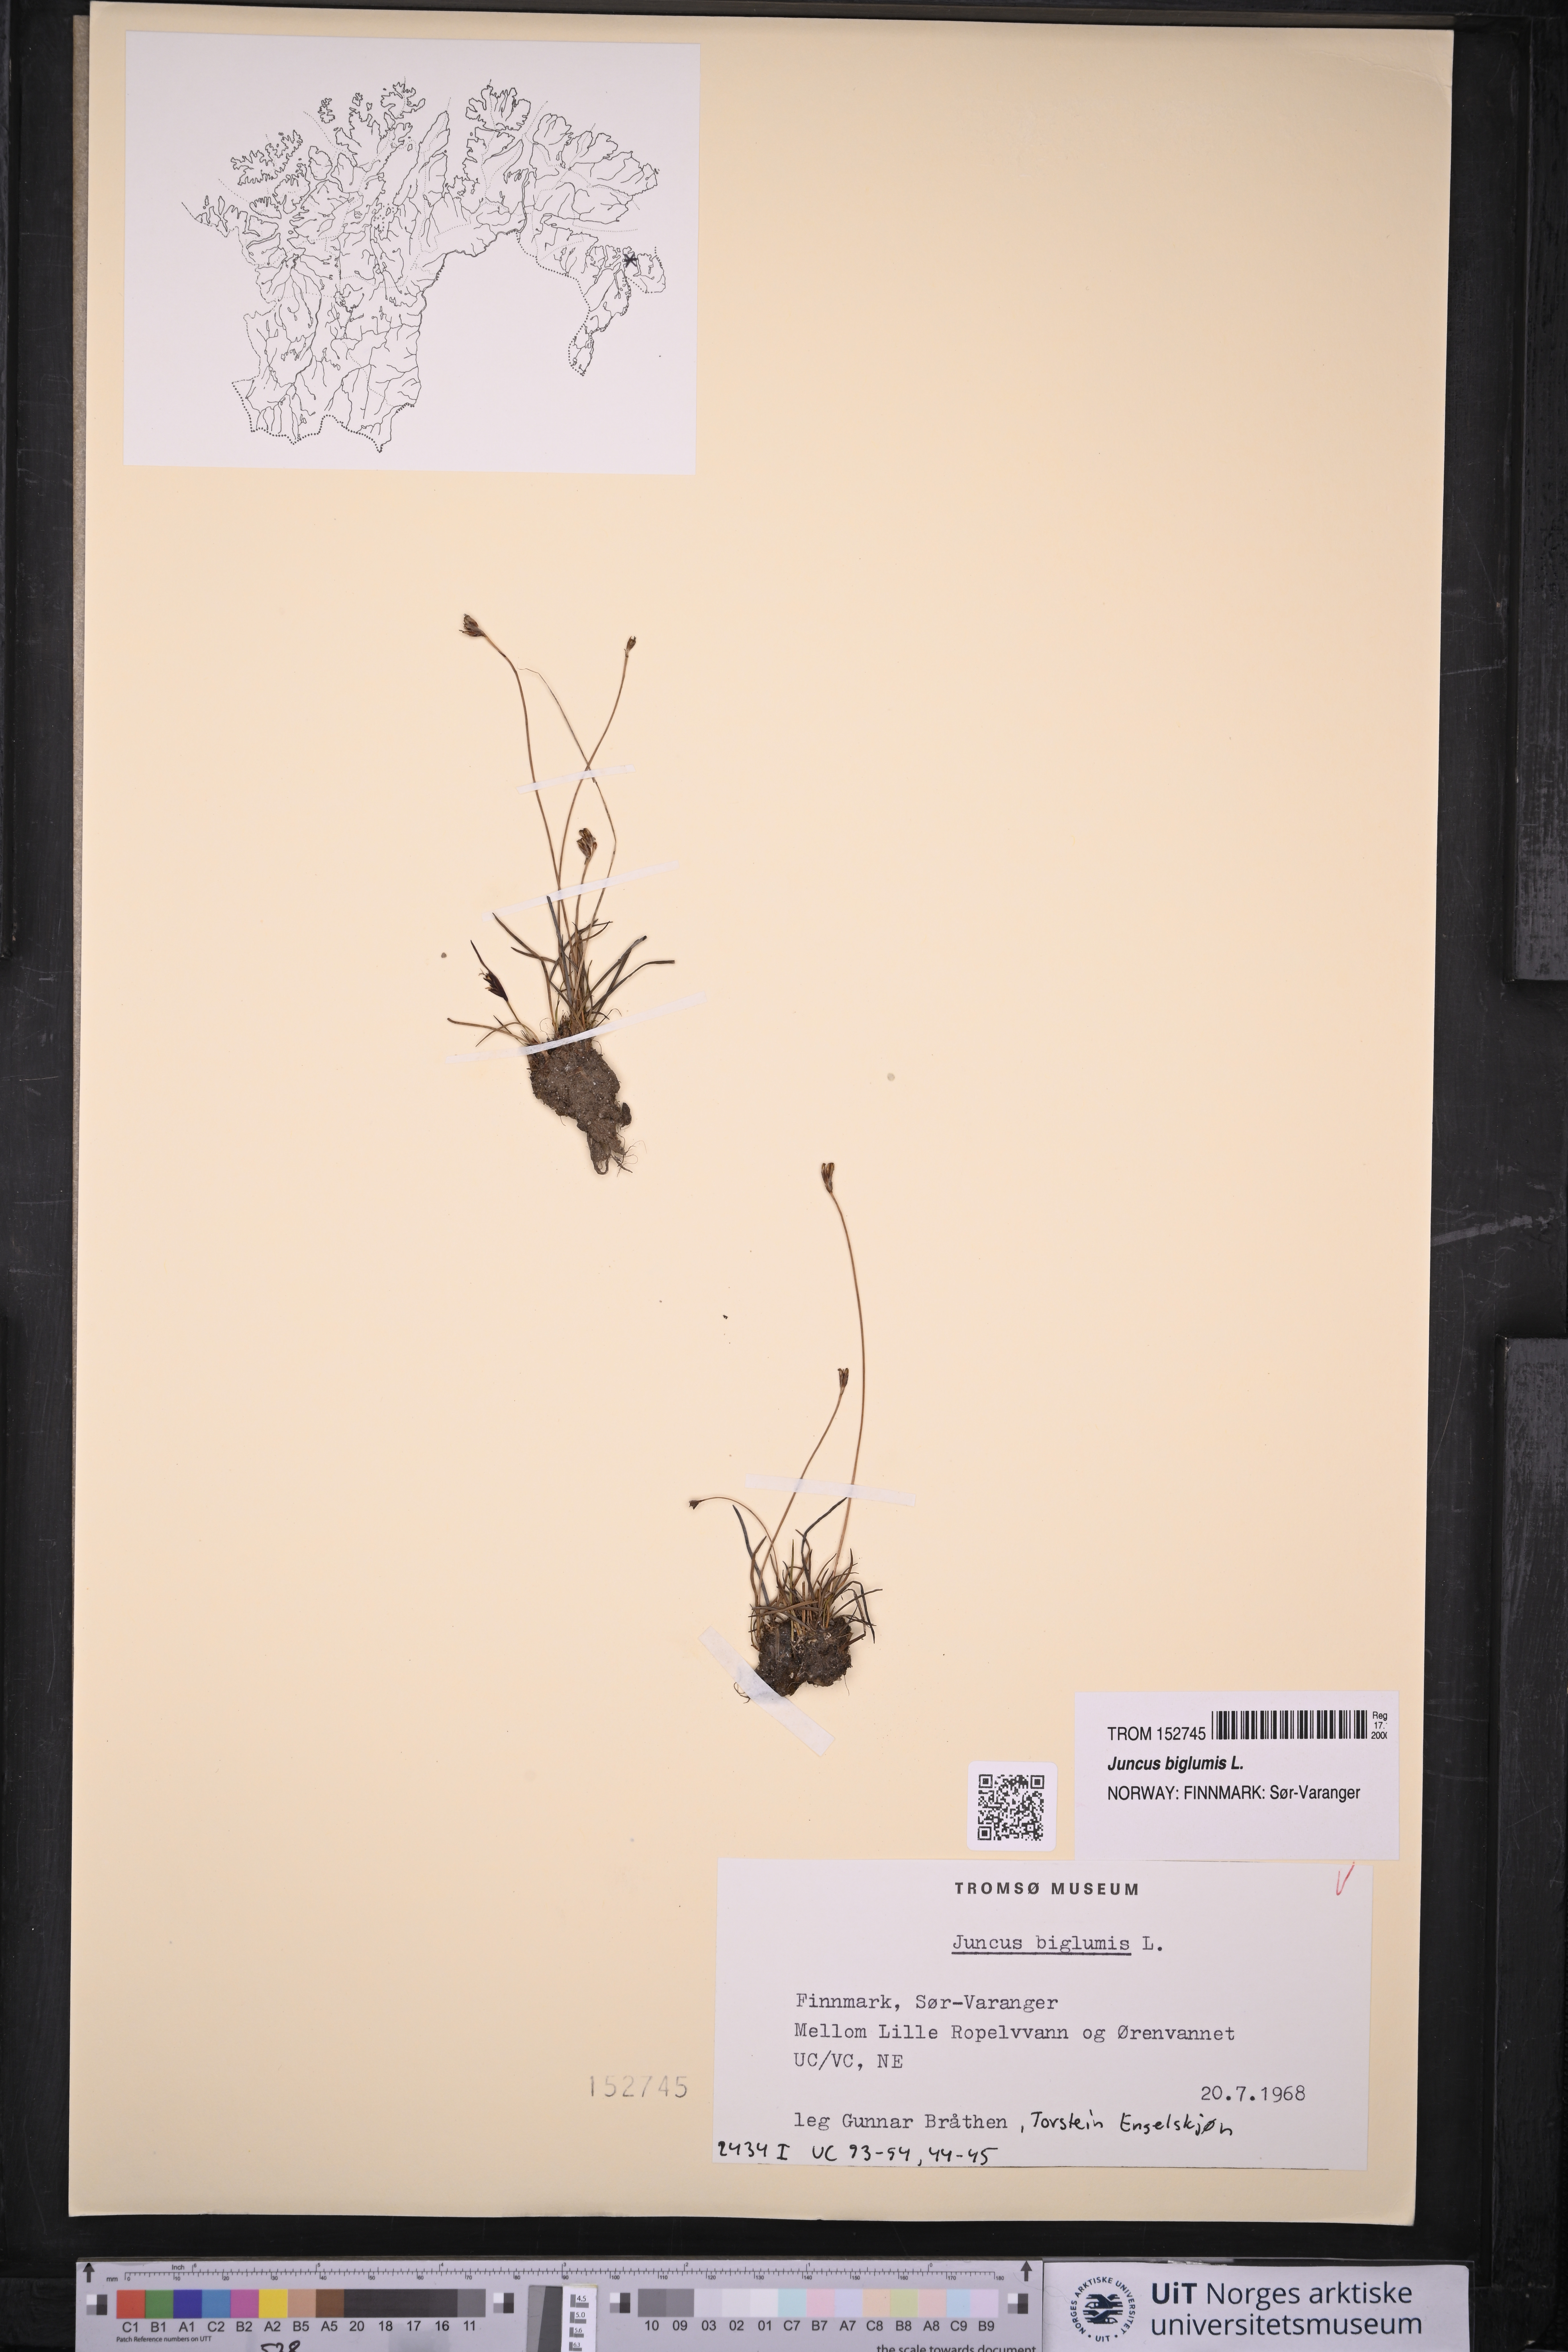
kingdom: Plantae
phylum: Tracheophyta
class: Liliopsida
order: Poales
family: Juncaceae
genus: Juncus
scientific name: Juncus biglumis
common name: Two-flowered rush
